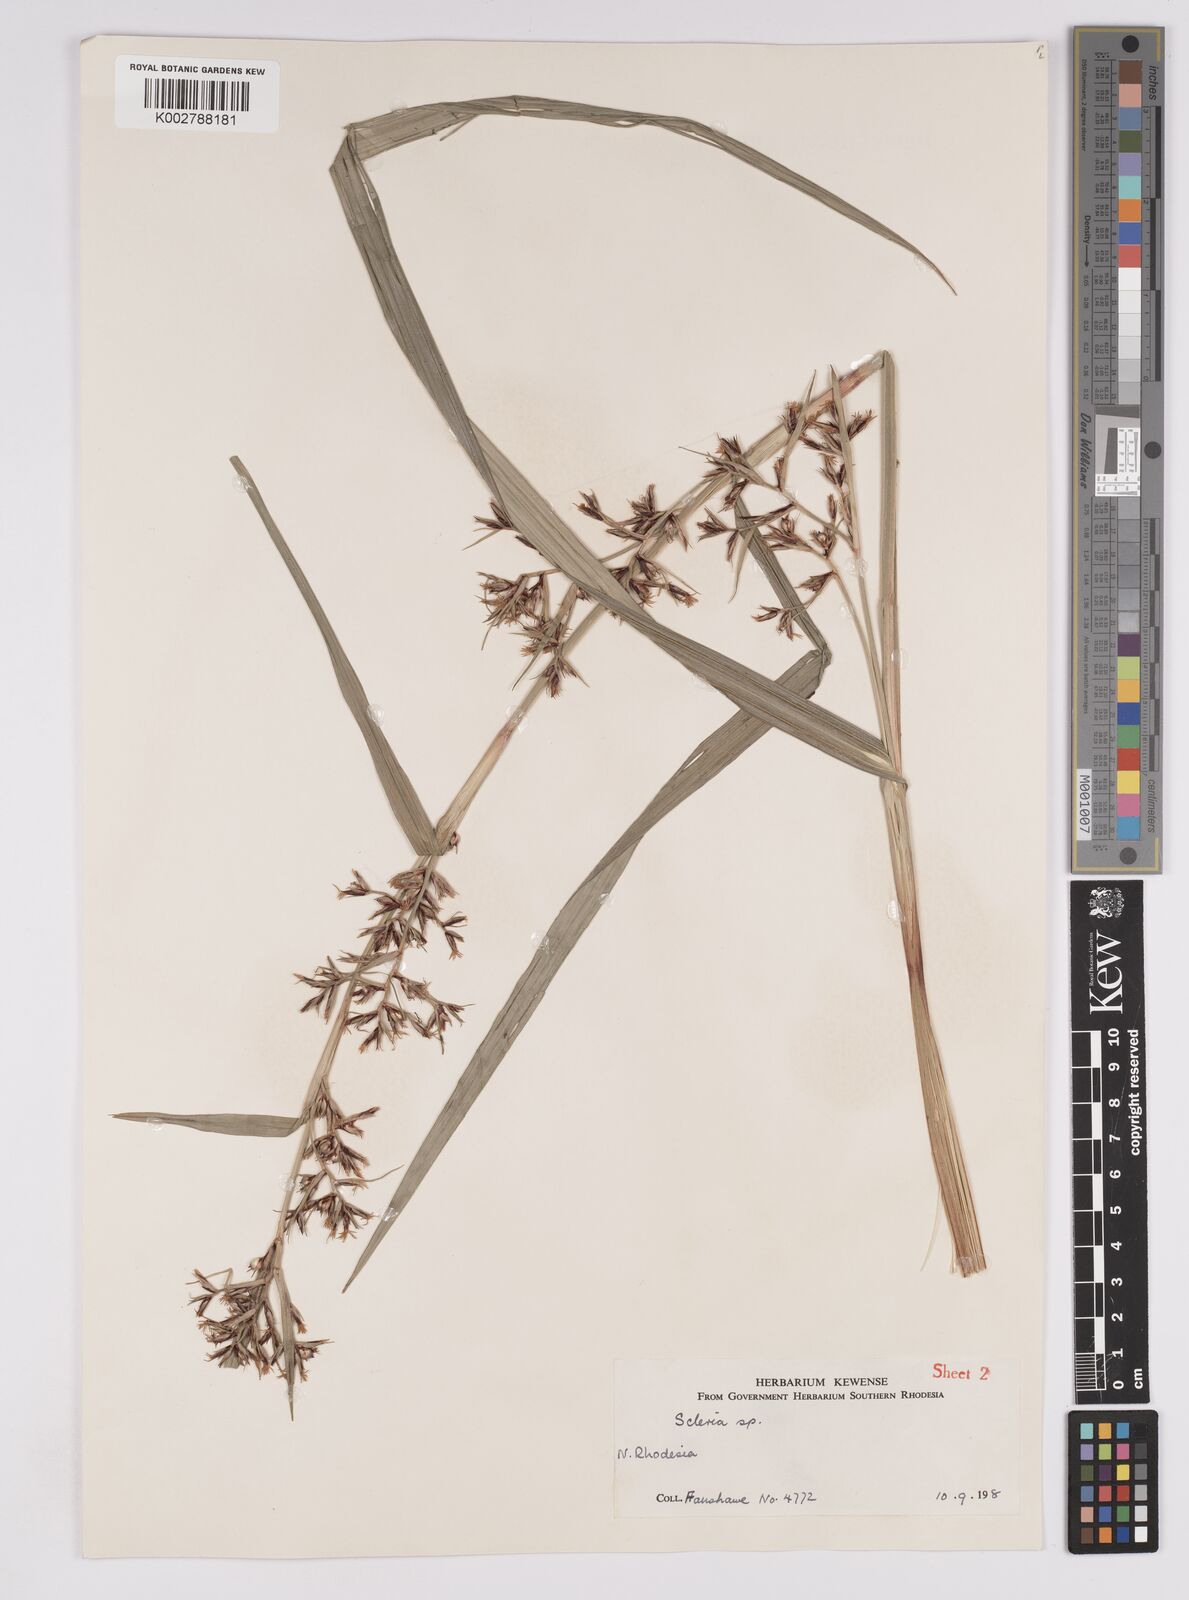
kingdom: Plantae
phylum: Tracheophyta
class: Liliopsida
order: Poales
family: Cyperaceae
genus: Scleria
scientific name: Scleria porphyrocarpa
